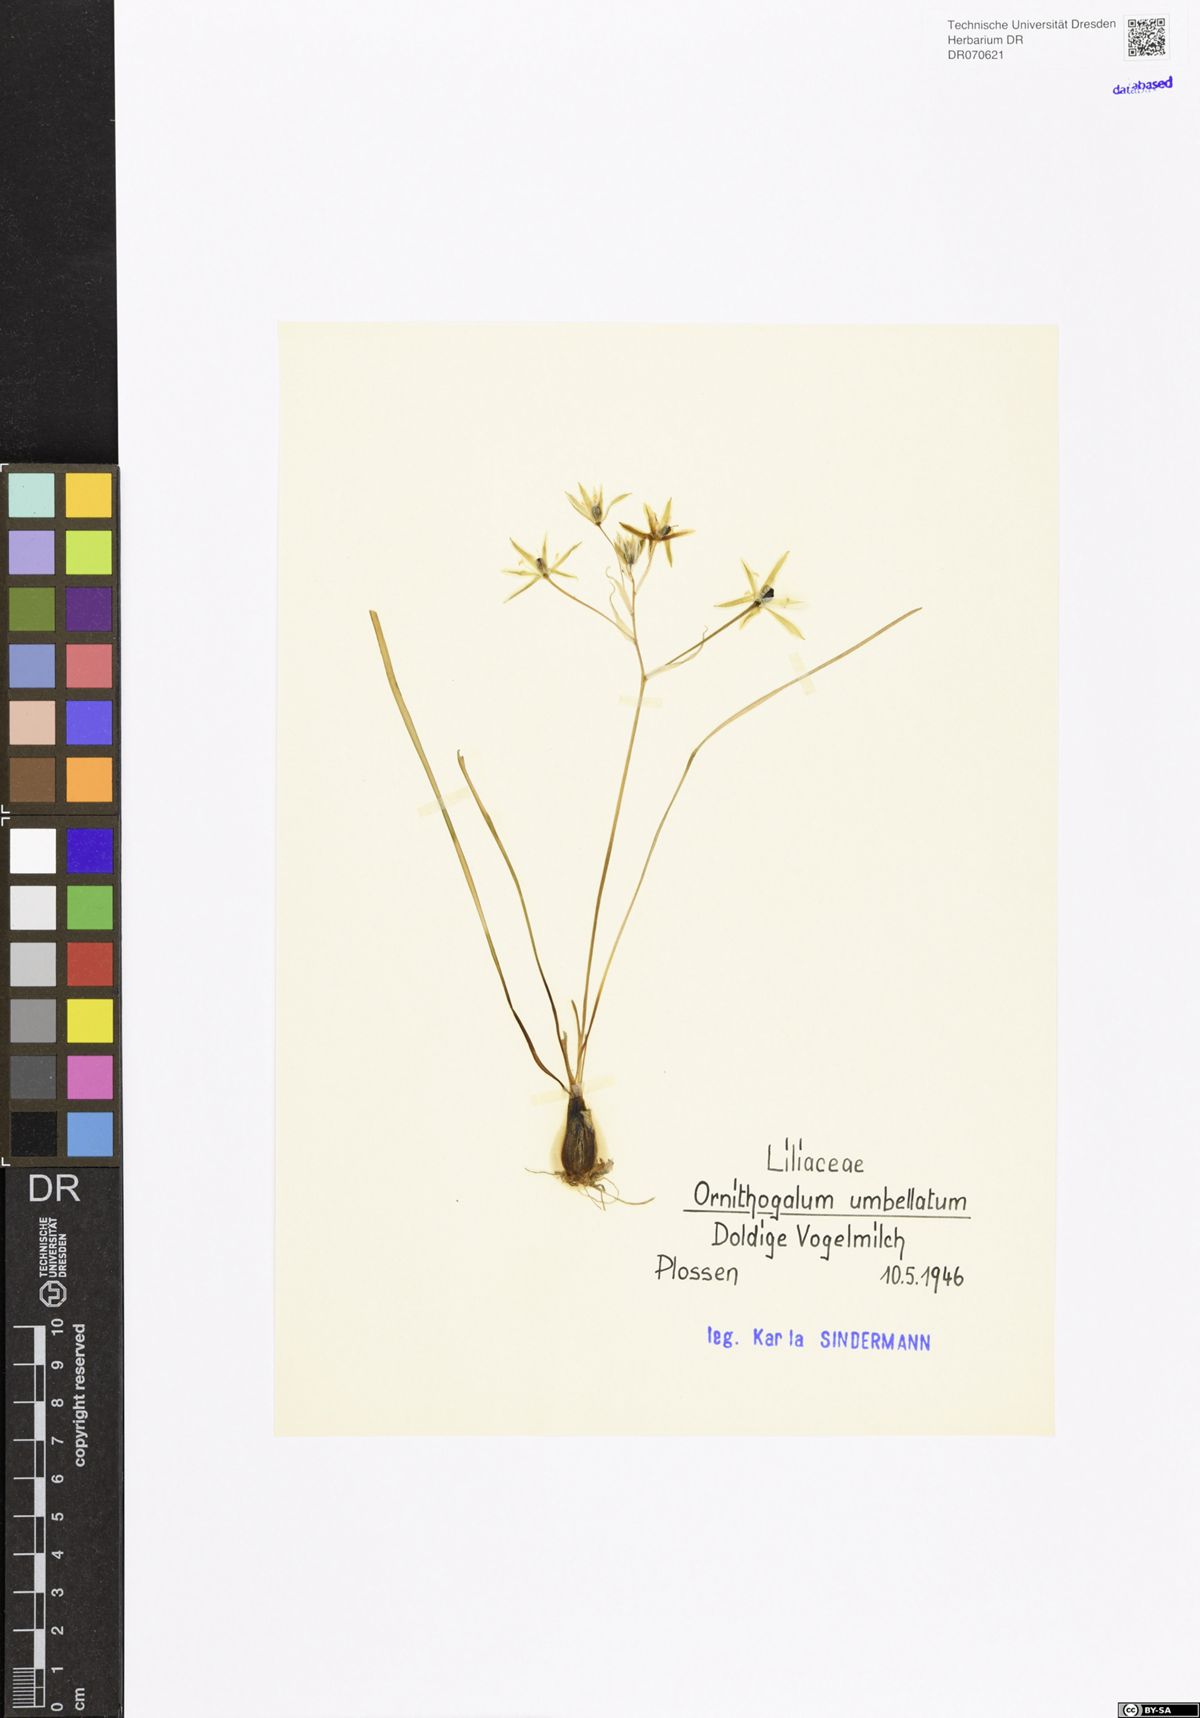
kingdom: Plantae
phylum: Tracheophyta
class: Liliopsida
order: Asparagales
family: Asparagaceae
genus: Ornithogalum
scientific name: Ornithogalum umbellatum
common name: Garden star-of-bethlehem
